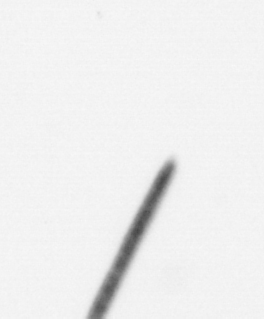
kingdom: Chromista
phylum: Ochrophyta
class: Bacillariophyceae
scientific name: Bacillariophyceae
